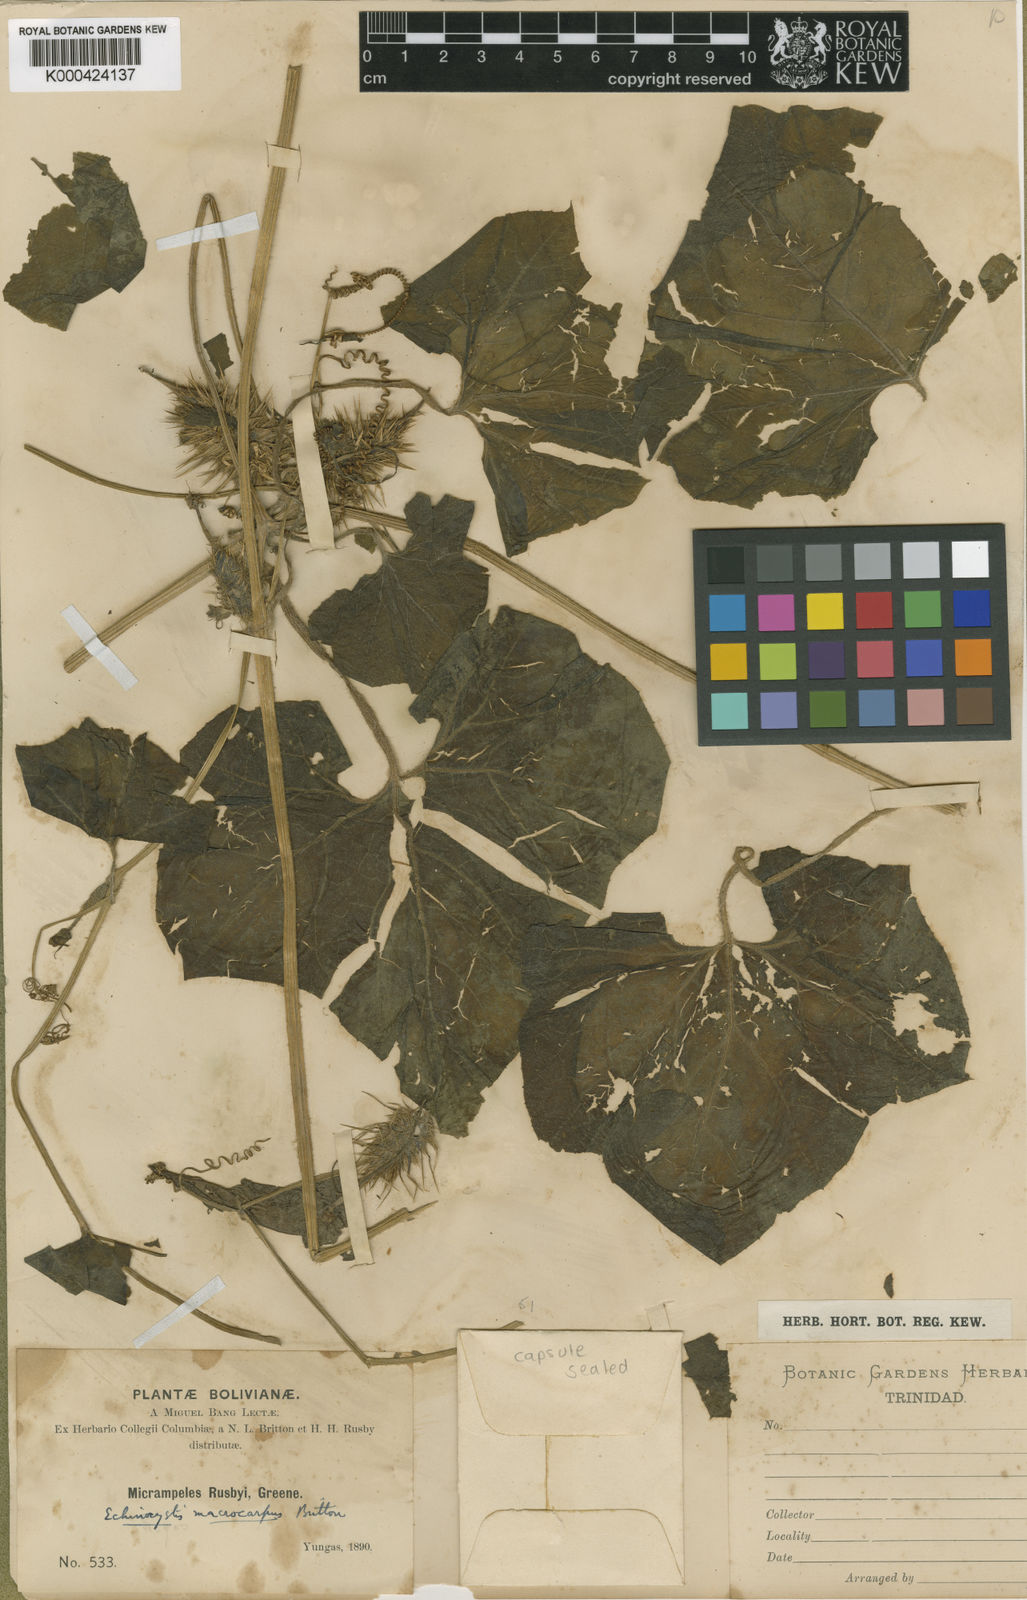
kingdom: Plantae
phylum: Tracheophyta
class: Magnoliopsida
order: Cucurbitales
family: Cucurbitaceae
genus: Echinopepon
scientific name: Echinopepon racemosus
